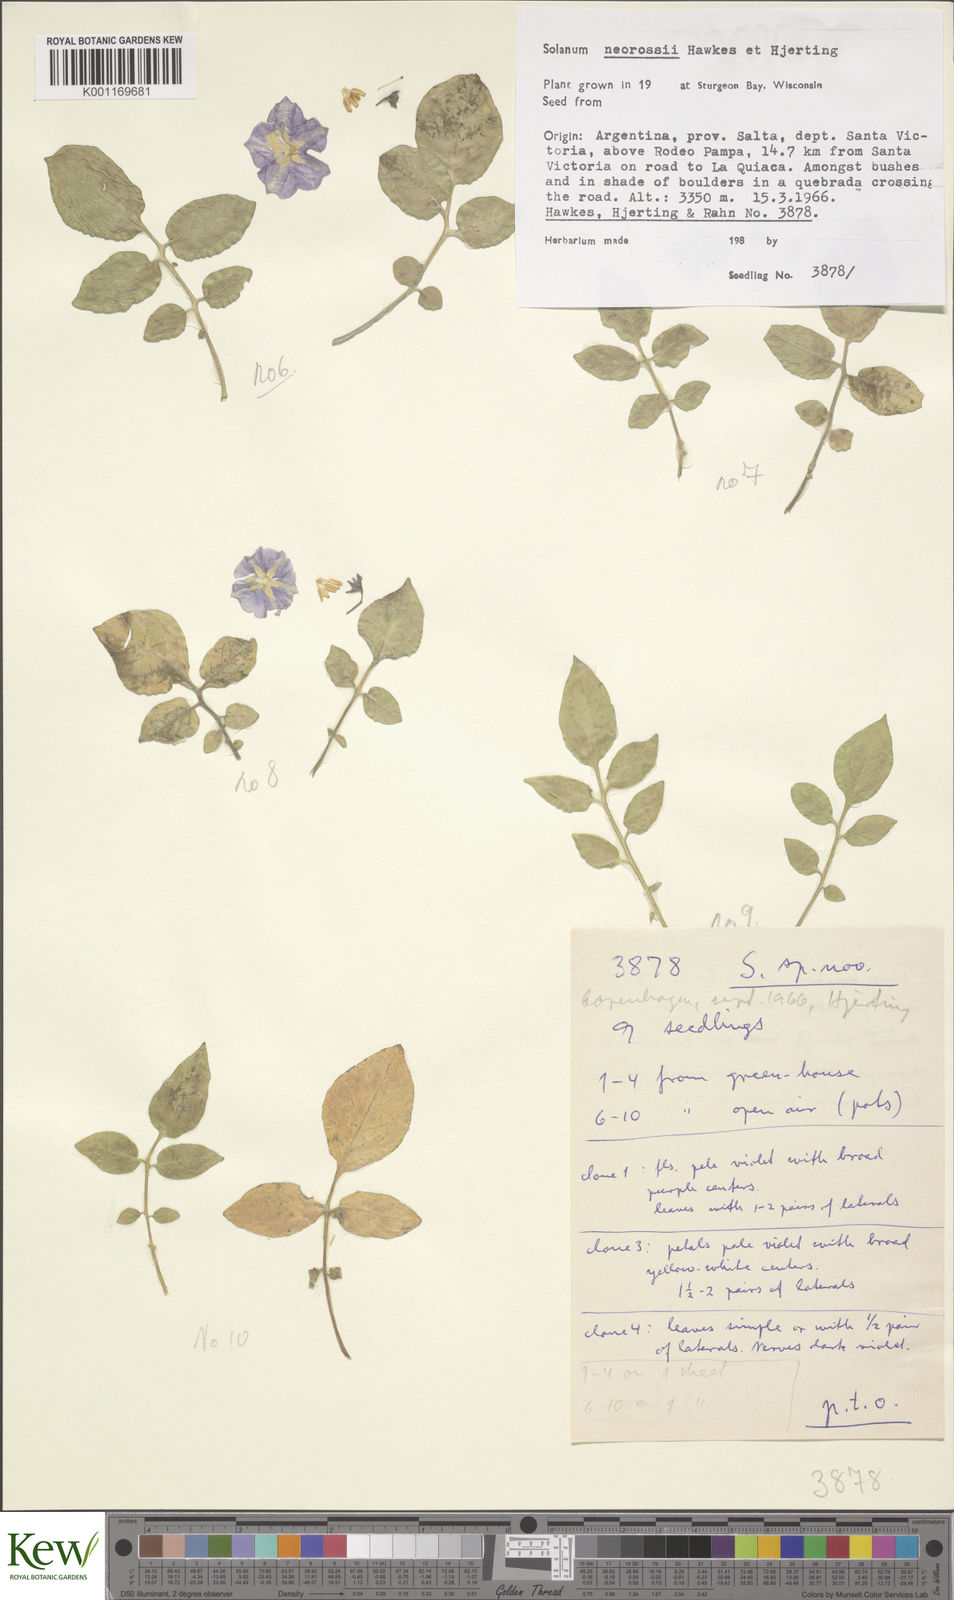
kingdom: Plantae
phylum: Tracheophyta
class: Magnoliopsida
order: Solanales
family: Solanaceae
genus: Solanum
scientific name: Solanum neorossii
